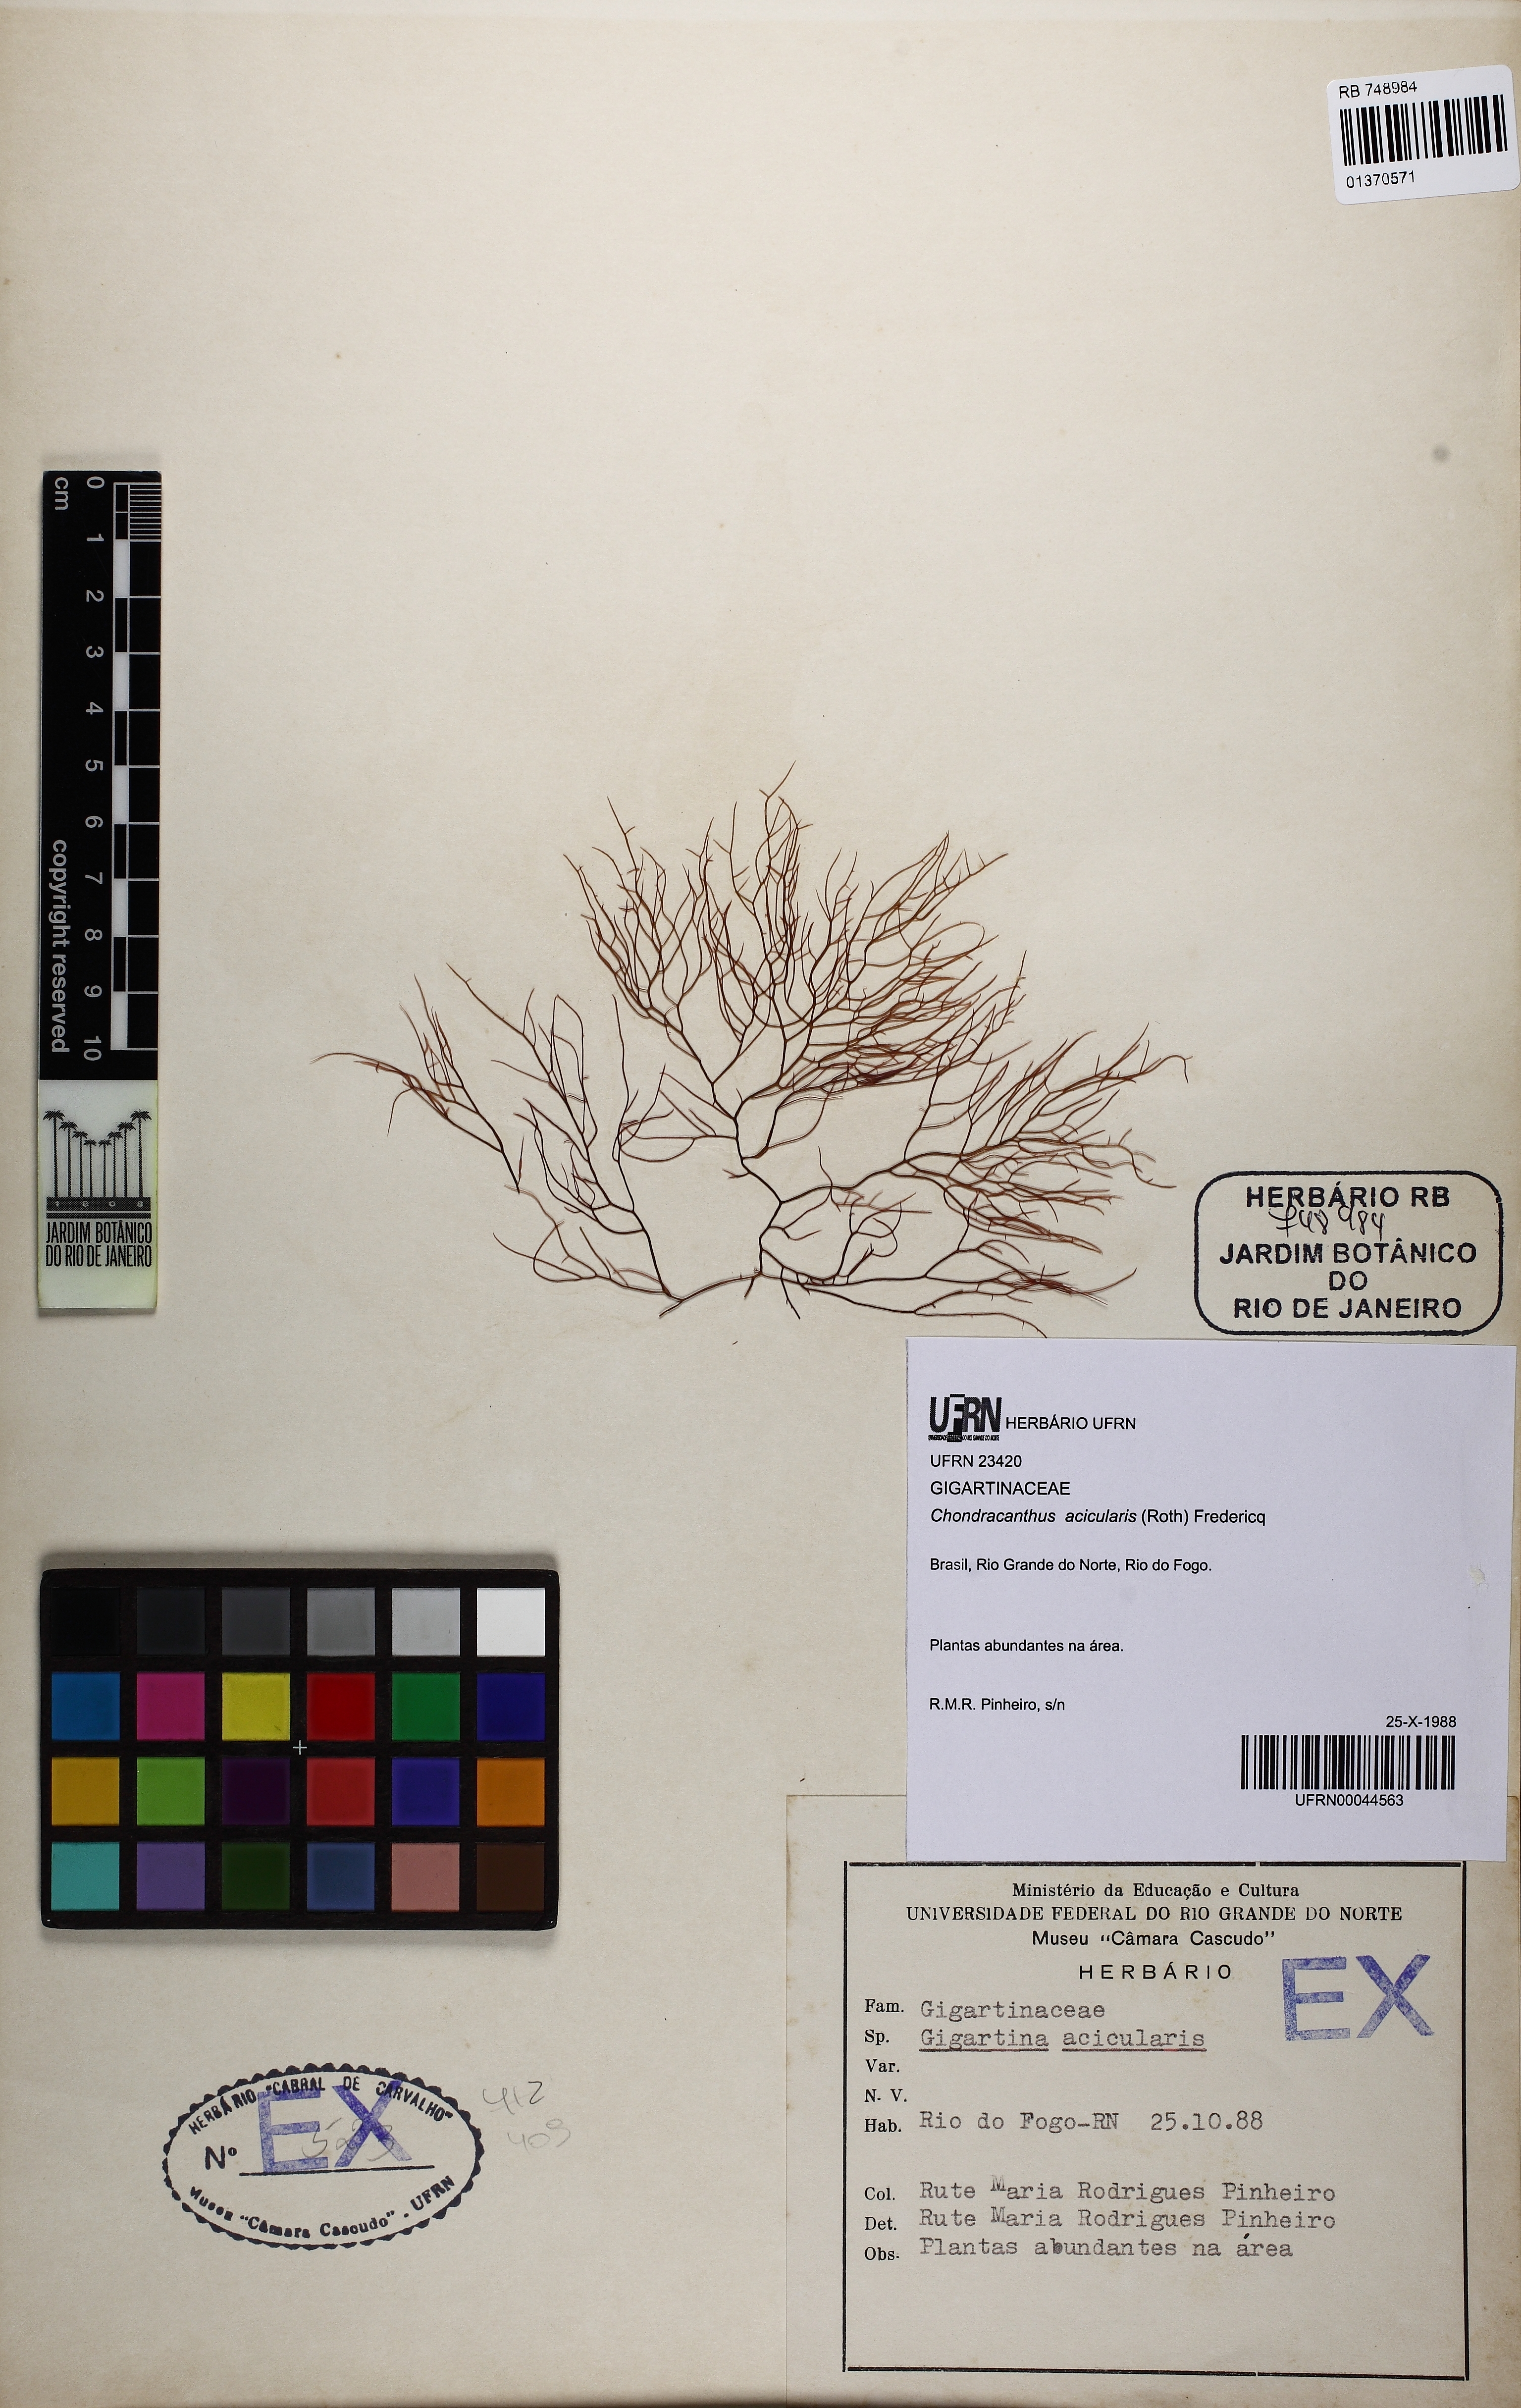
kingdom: Plantae
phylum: Rhodophyta
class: Florideophyceae
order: Gigartinales
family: Gigartinaceae
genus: Chondracanthus
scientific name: Chondracanthus acicularis
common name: Creephorn
